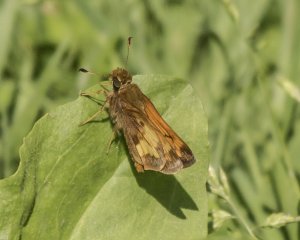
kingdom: Animalia
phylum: Arthropoda
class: Insecta
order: Lepidoptera
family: Hesperiidae
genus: Lon
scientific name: Lon hobomok
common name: Hobomok Skipper
